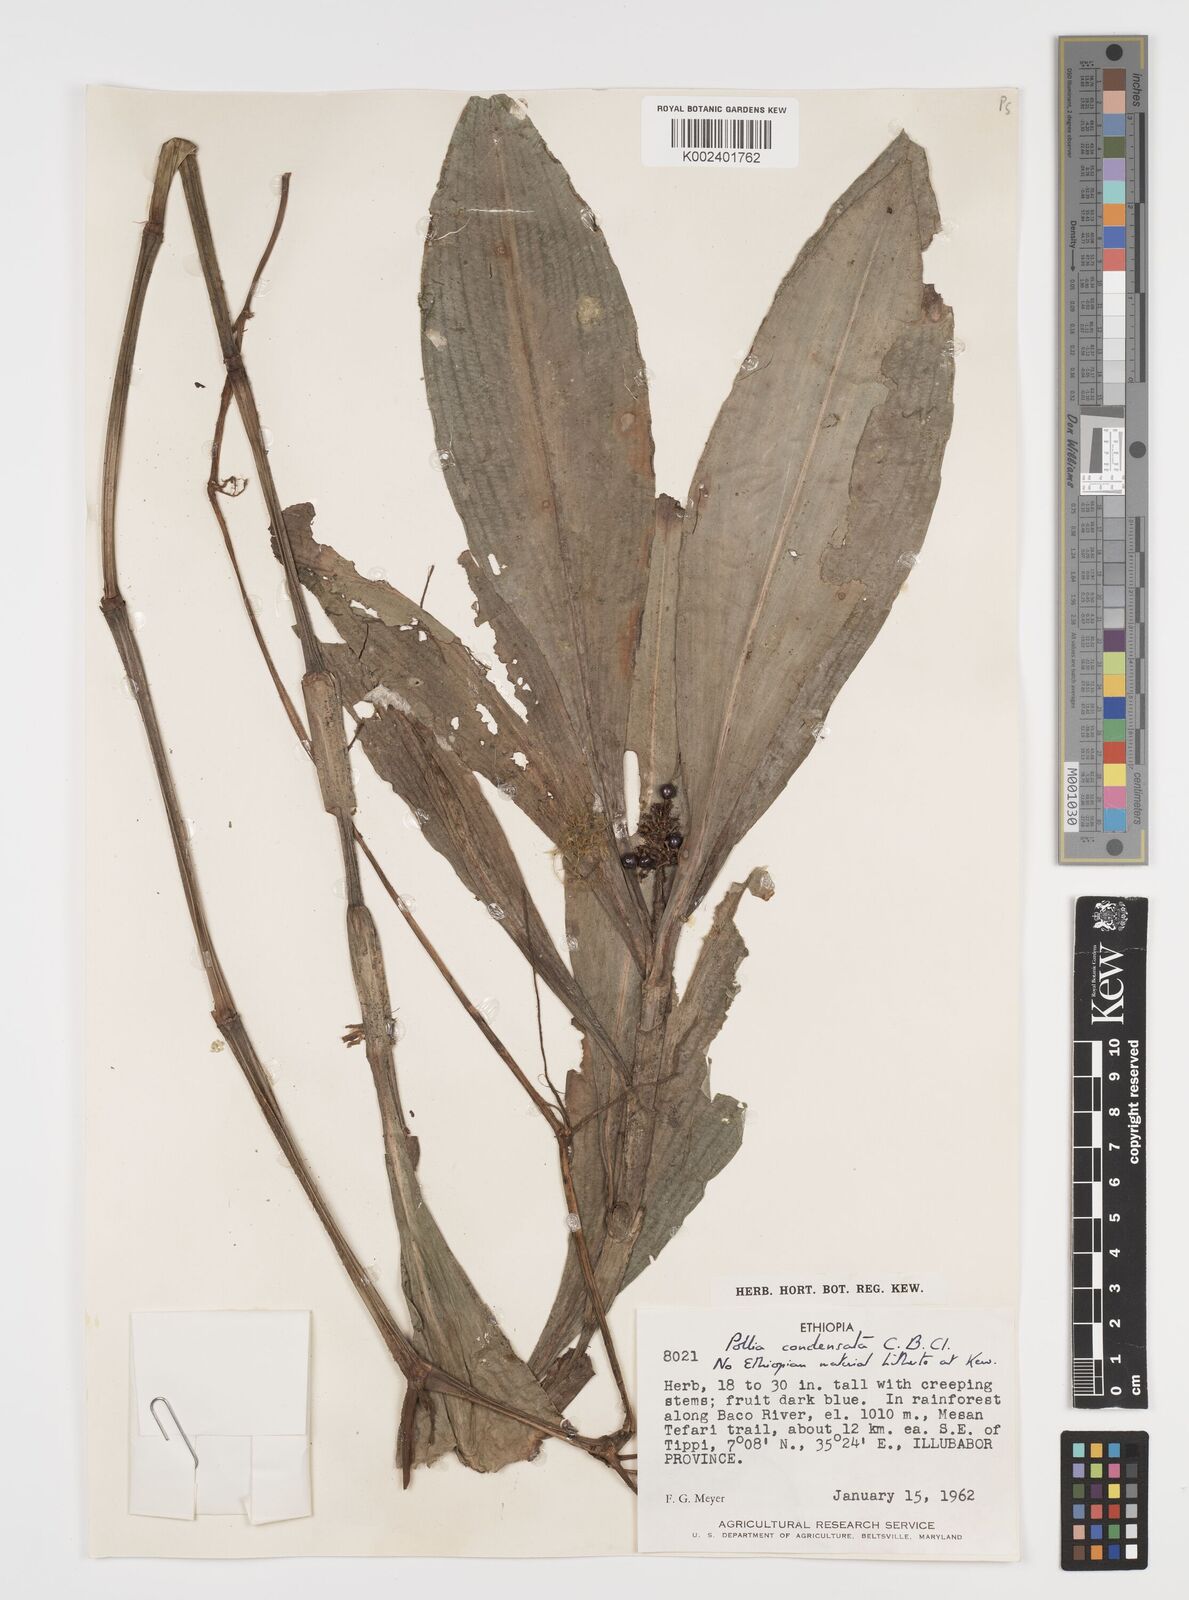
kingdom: Plantae
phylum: Tracheophyta
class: Liliopsida
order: Commelinales
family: Commelinaceae
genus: Pollia
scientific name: Pollia condensata
